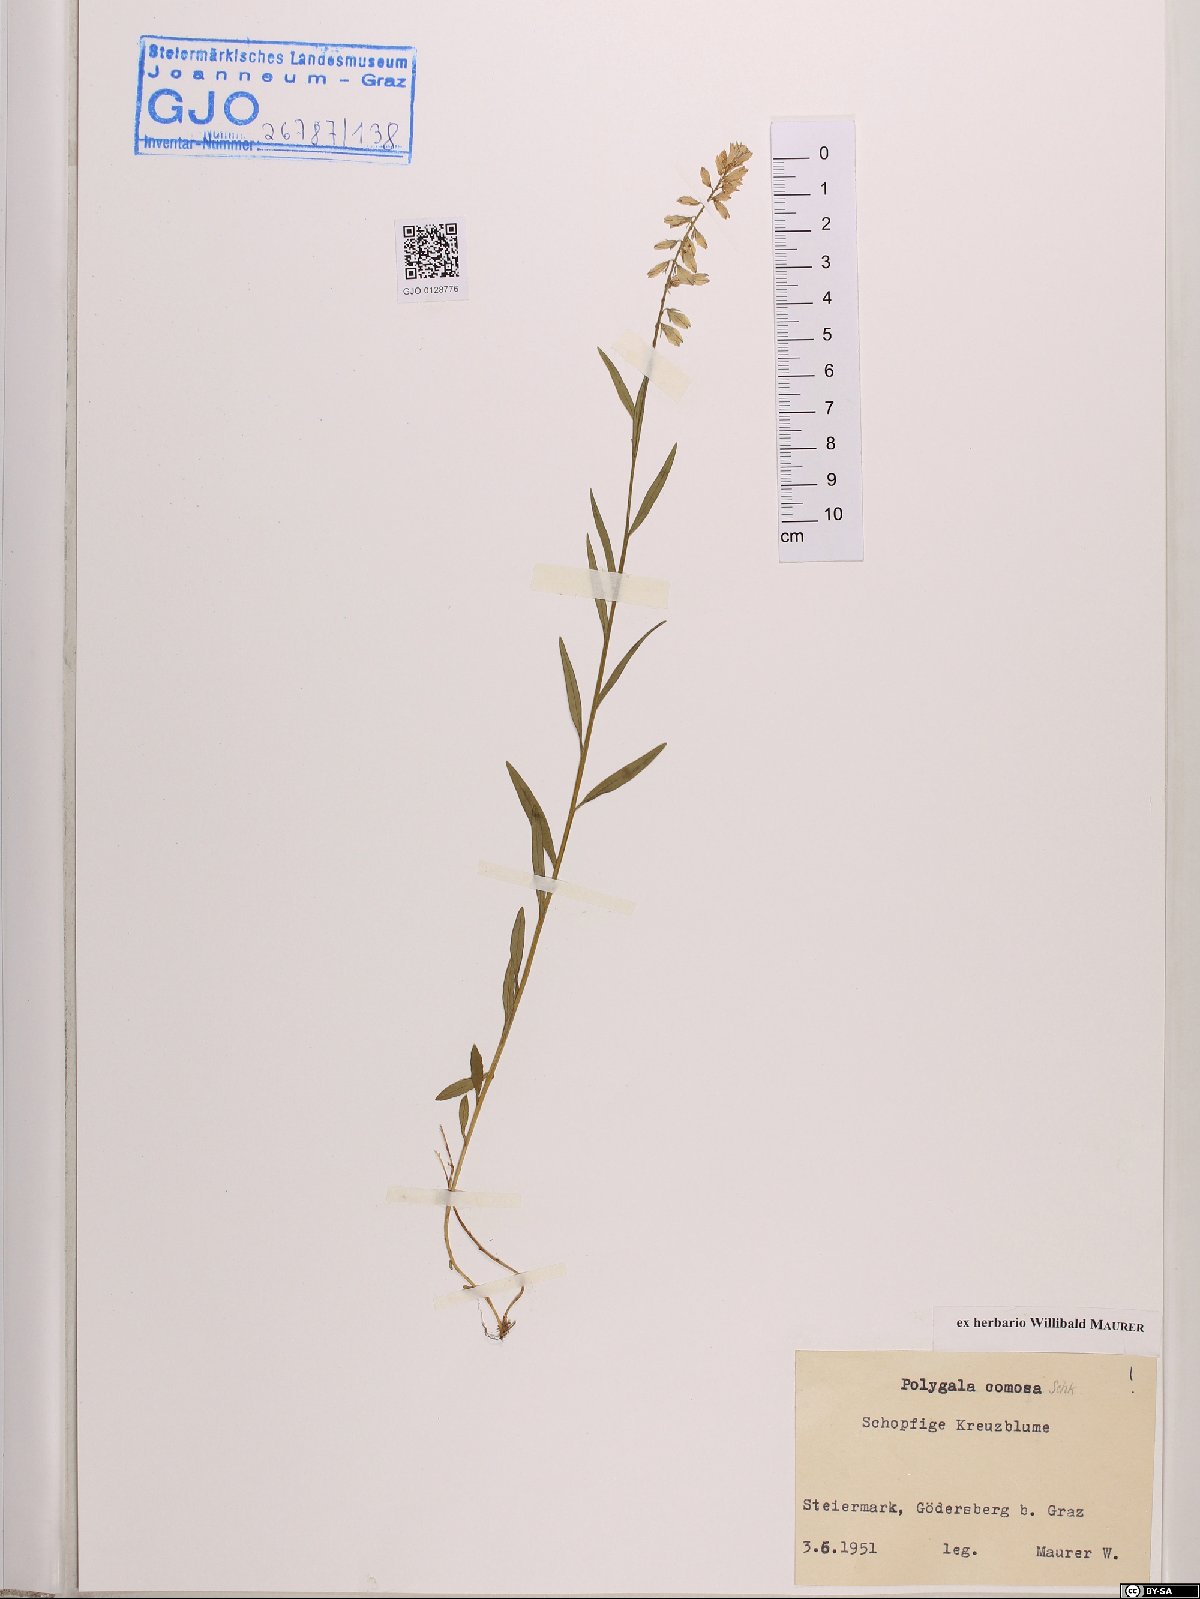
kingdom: Plantae
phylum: Tracheophyta
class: Magnoliopsida
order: Fabales
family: Polygalaceae
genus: Polygala
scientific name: Polygala comosa
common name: Tufted milkwort
